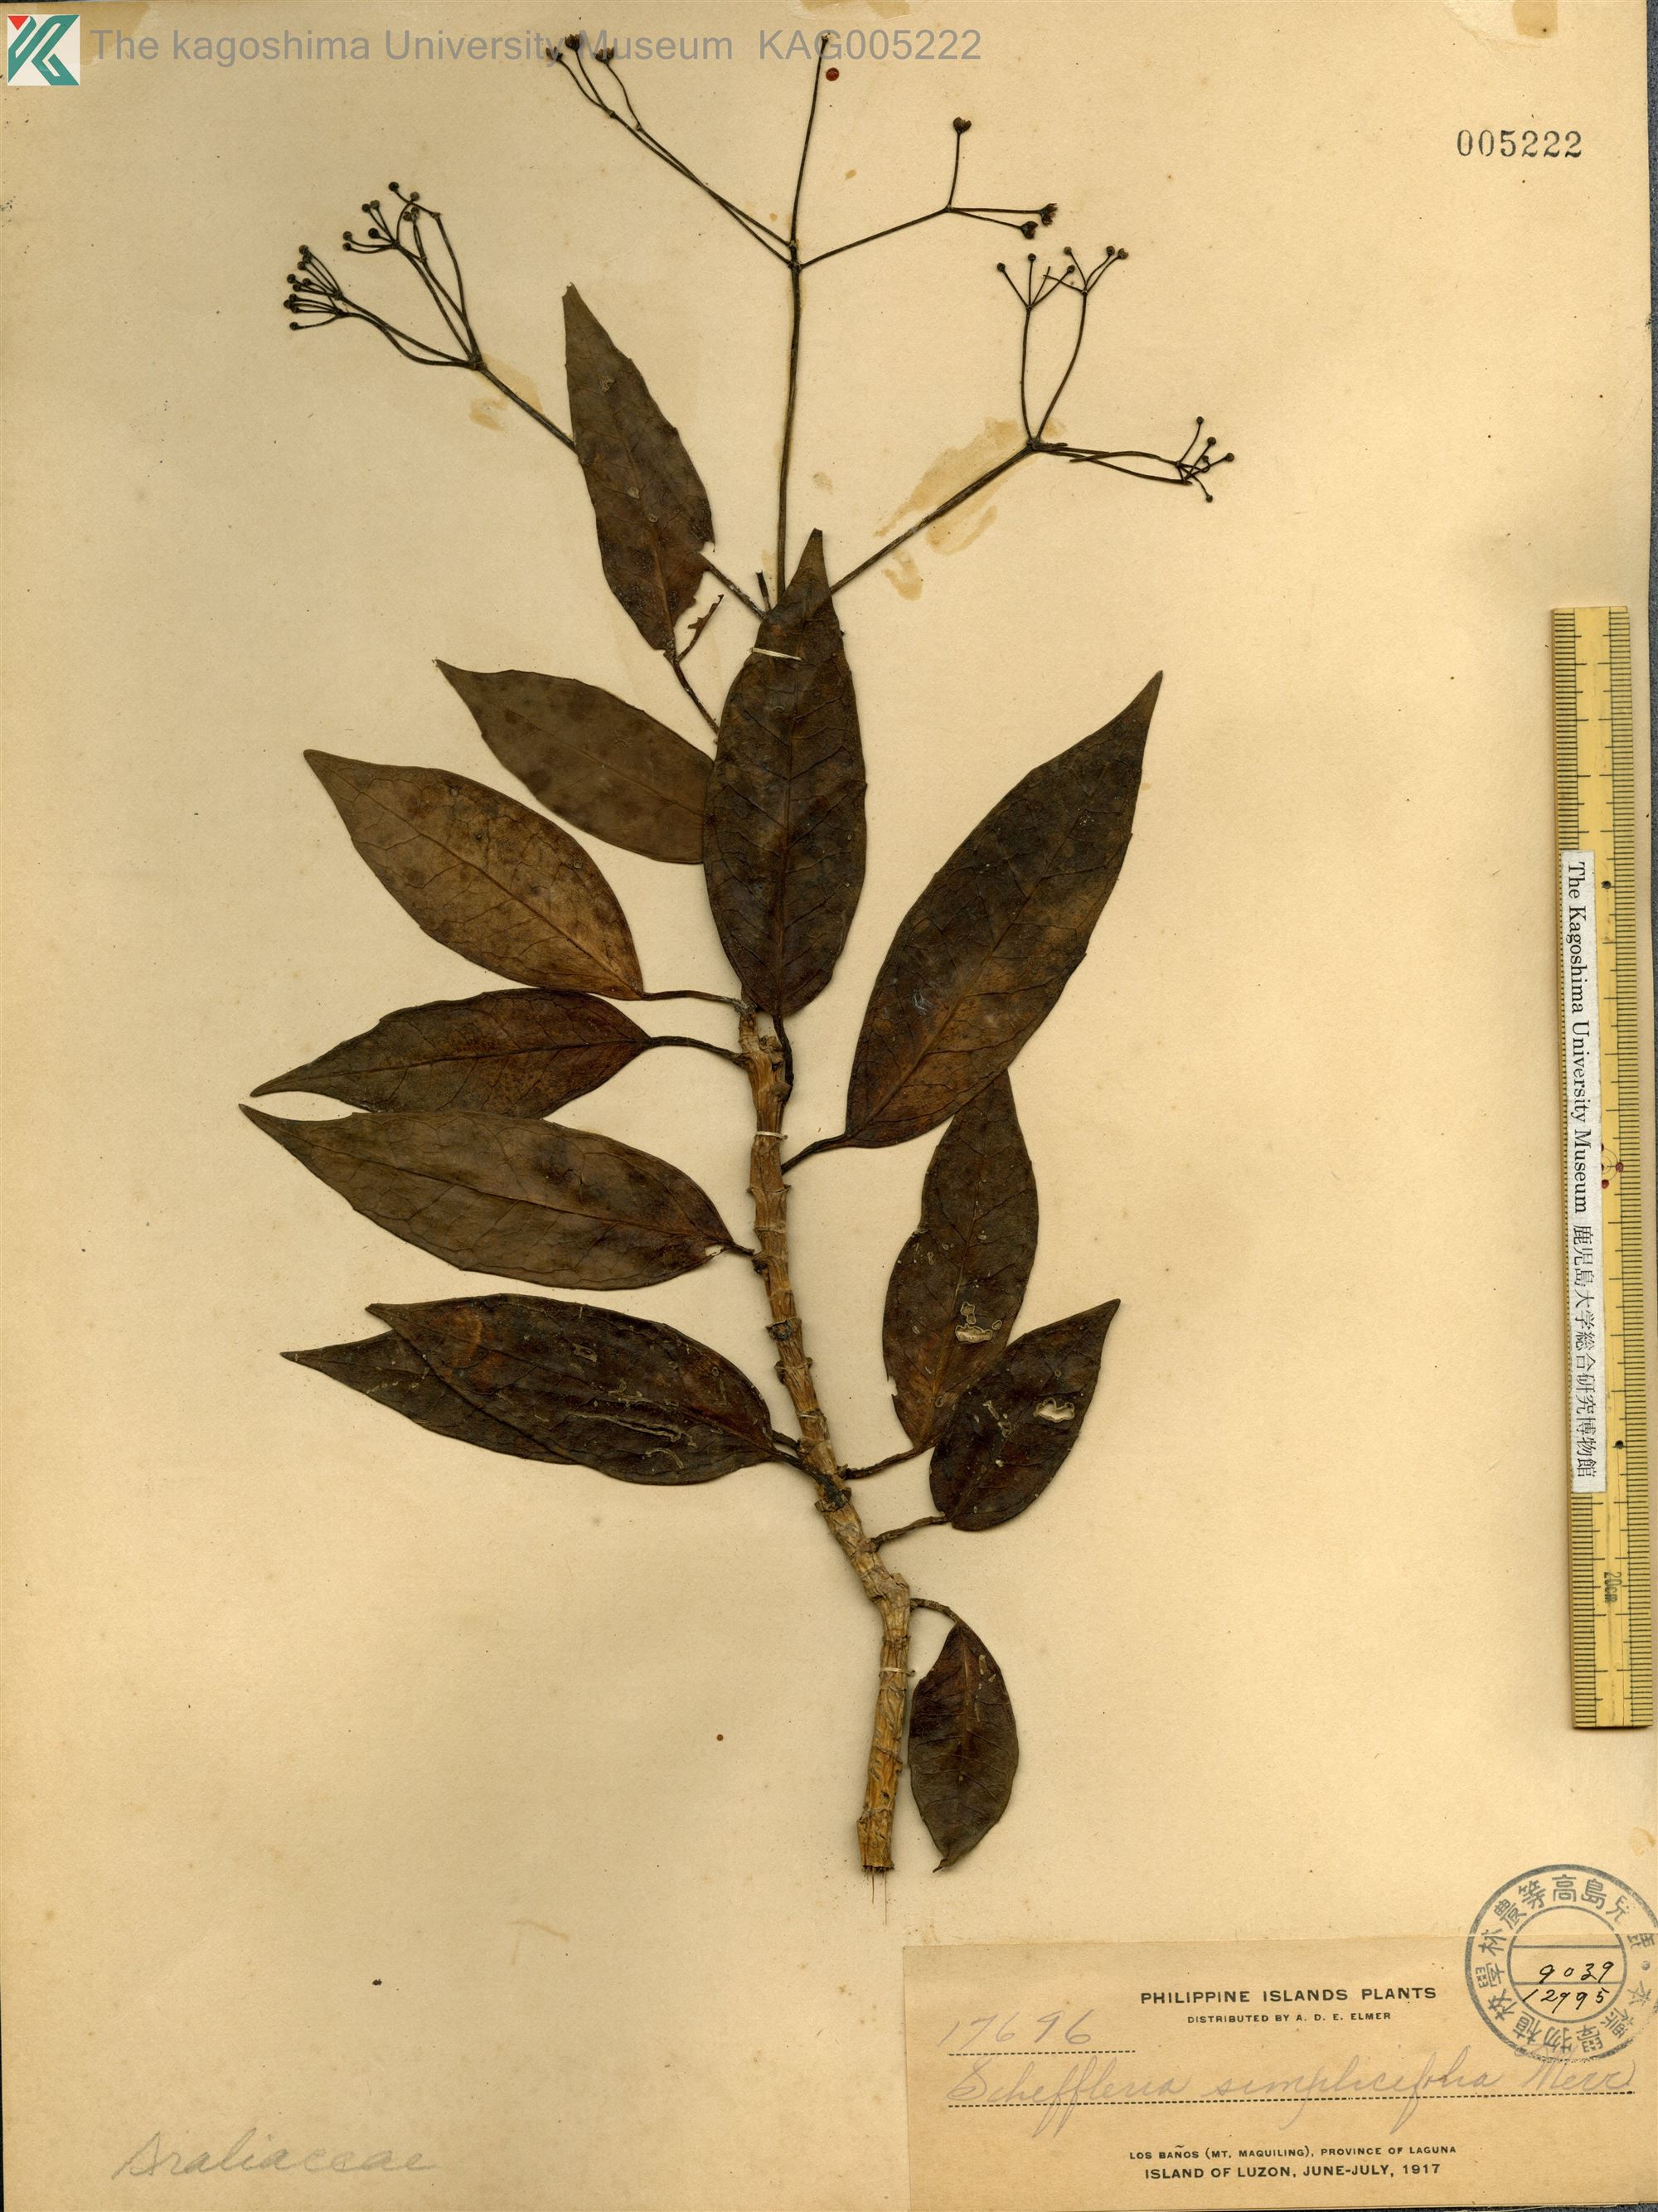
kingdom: Plantae
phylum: Tracheophyta
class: Magnoliopsida
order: Apiales
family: Araliaceae
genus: Heptapleurum
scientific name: Heptapleurum simplicifolium
